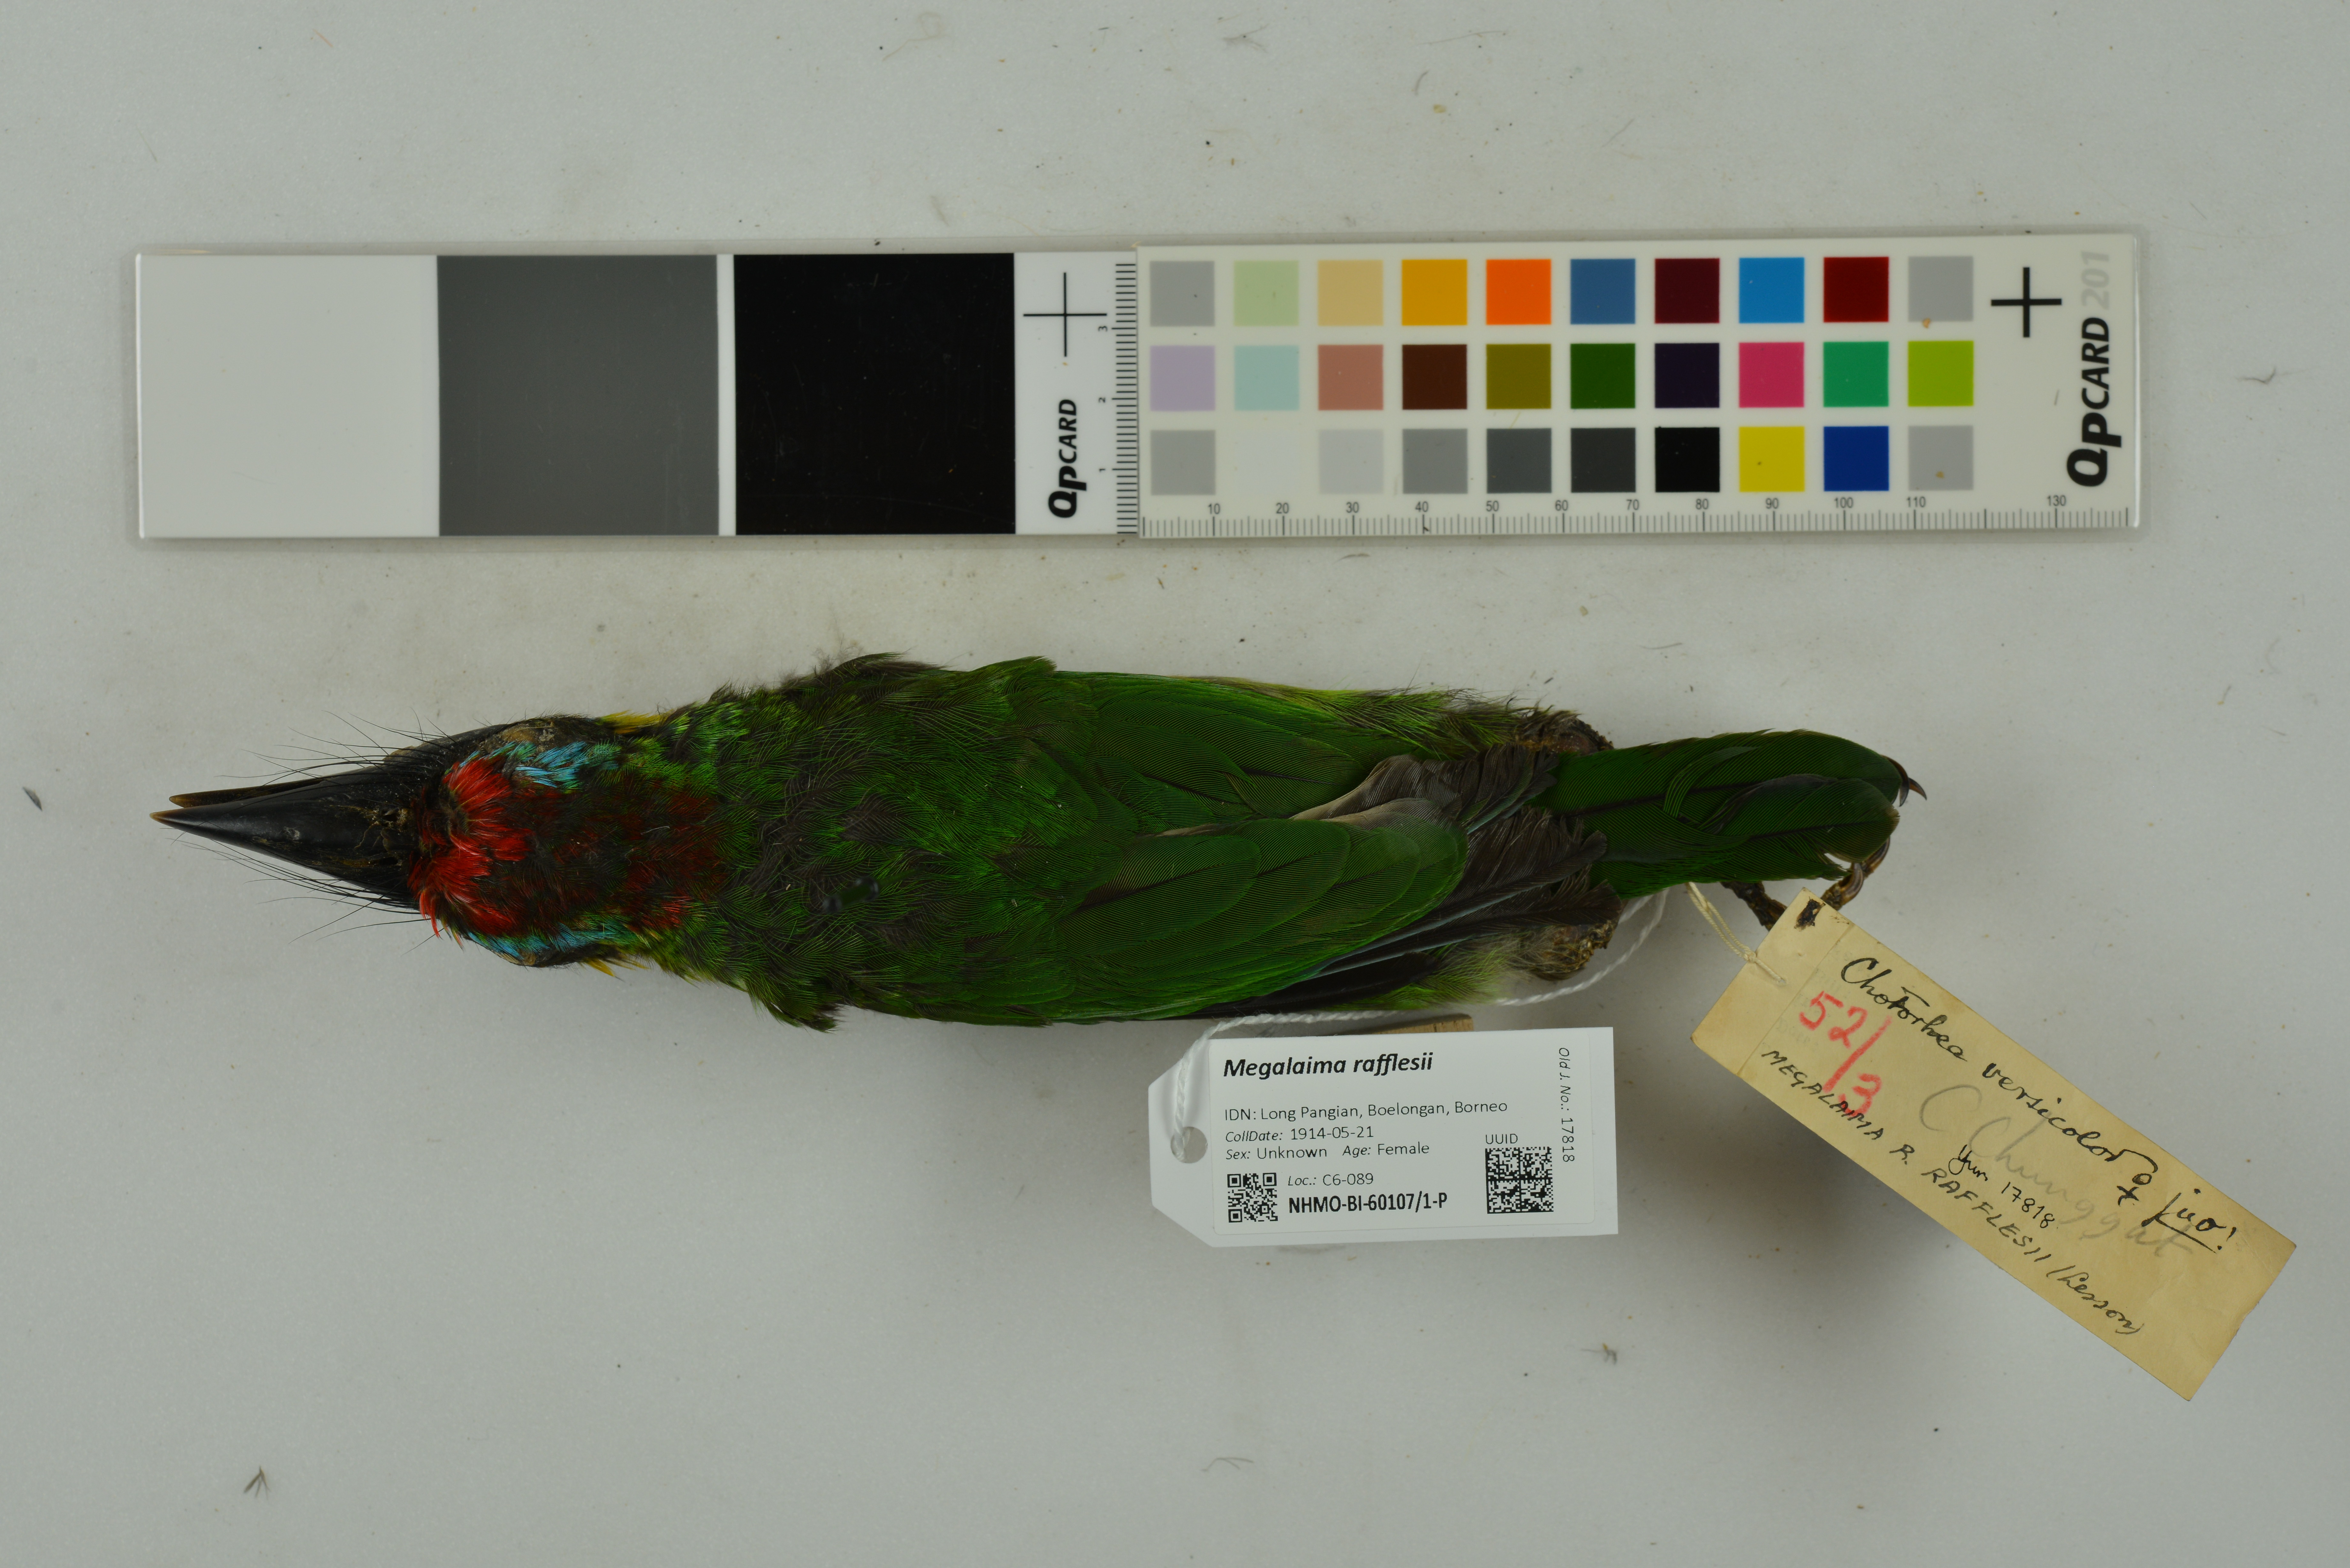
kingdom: Animalia
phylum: Chordata
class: Aves
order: Piciformes
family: Megalaimidae
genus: Psilopogon
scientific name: Psilopogon rafflesii
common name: Red-crowned barbet
